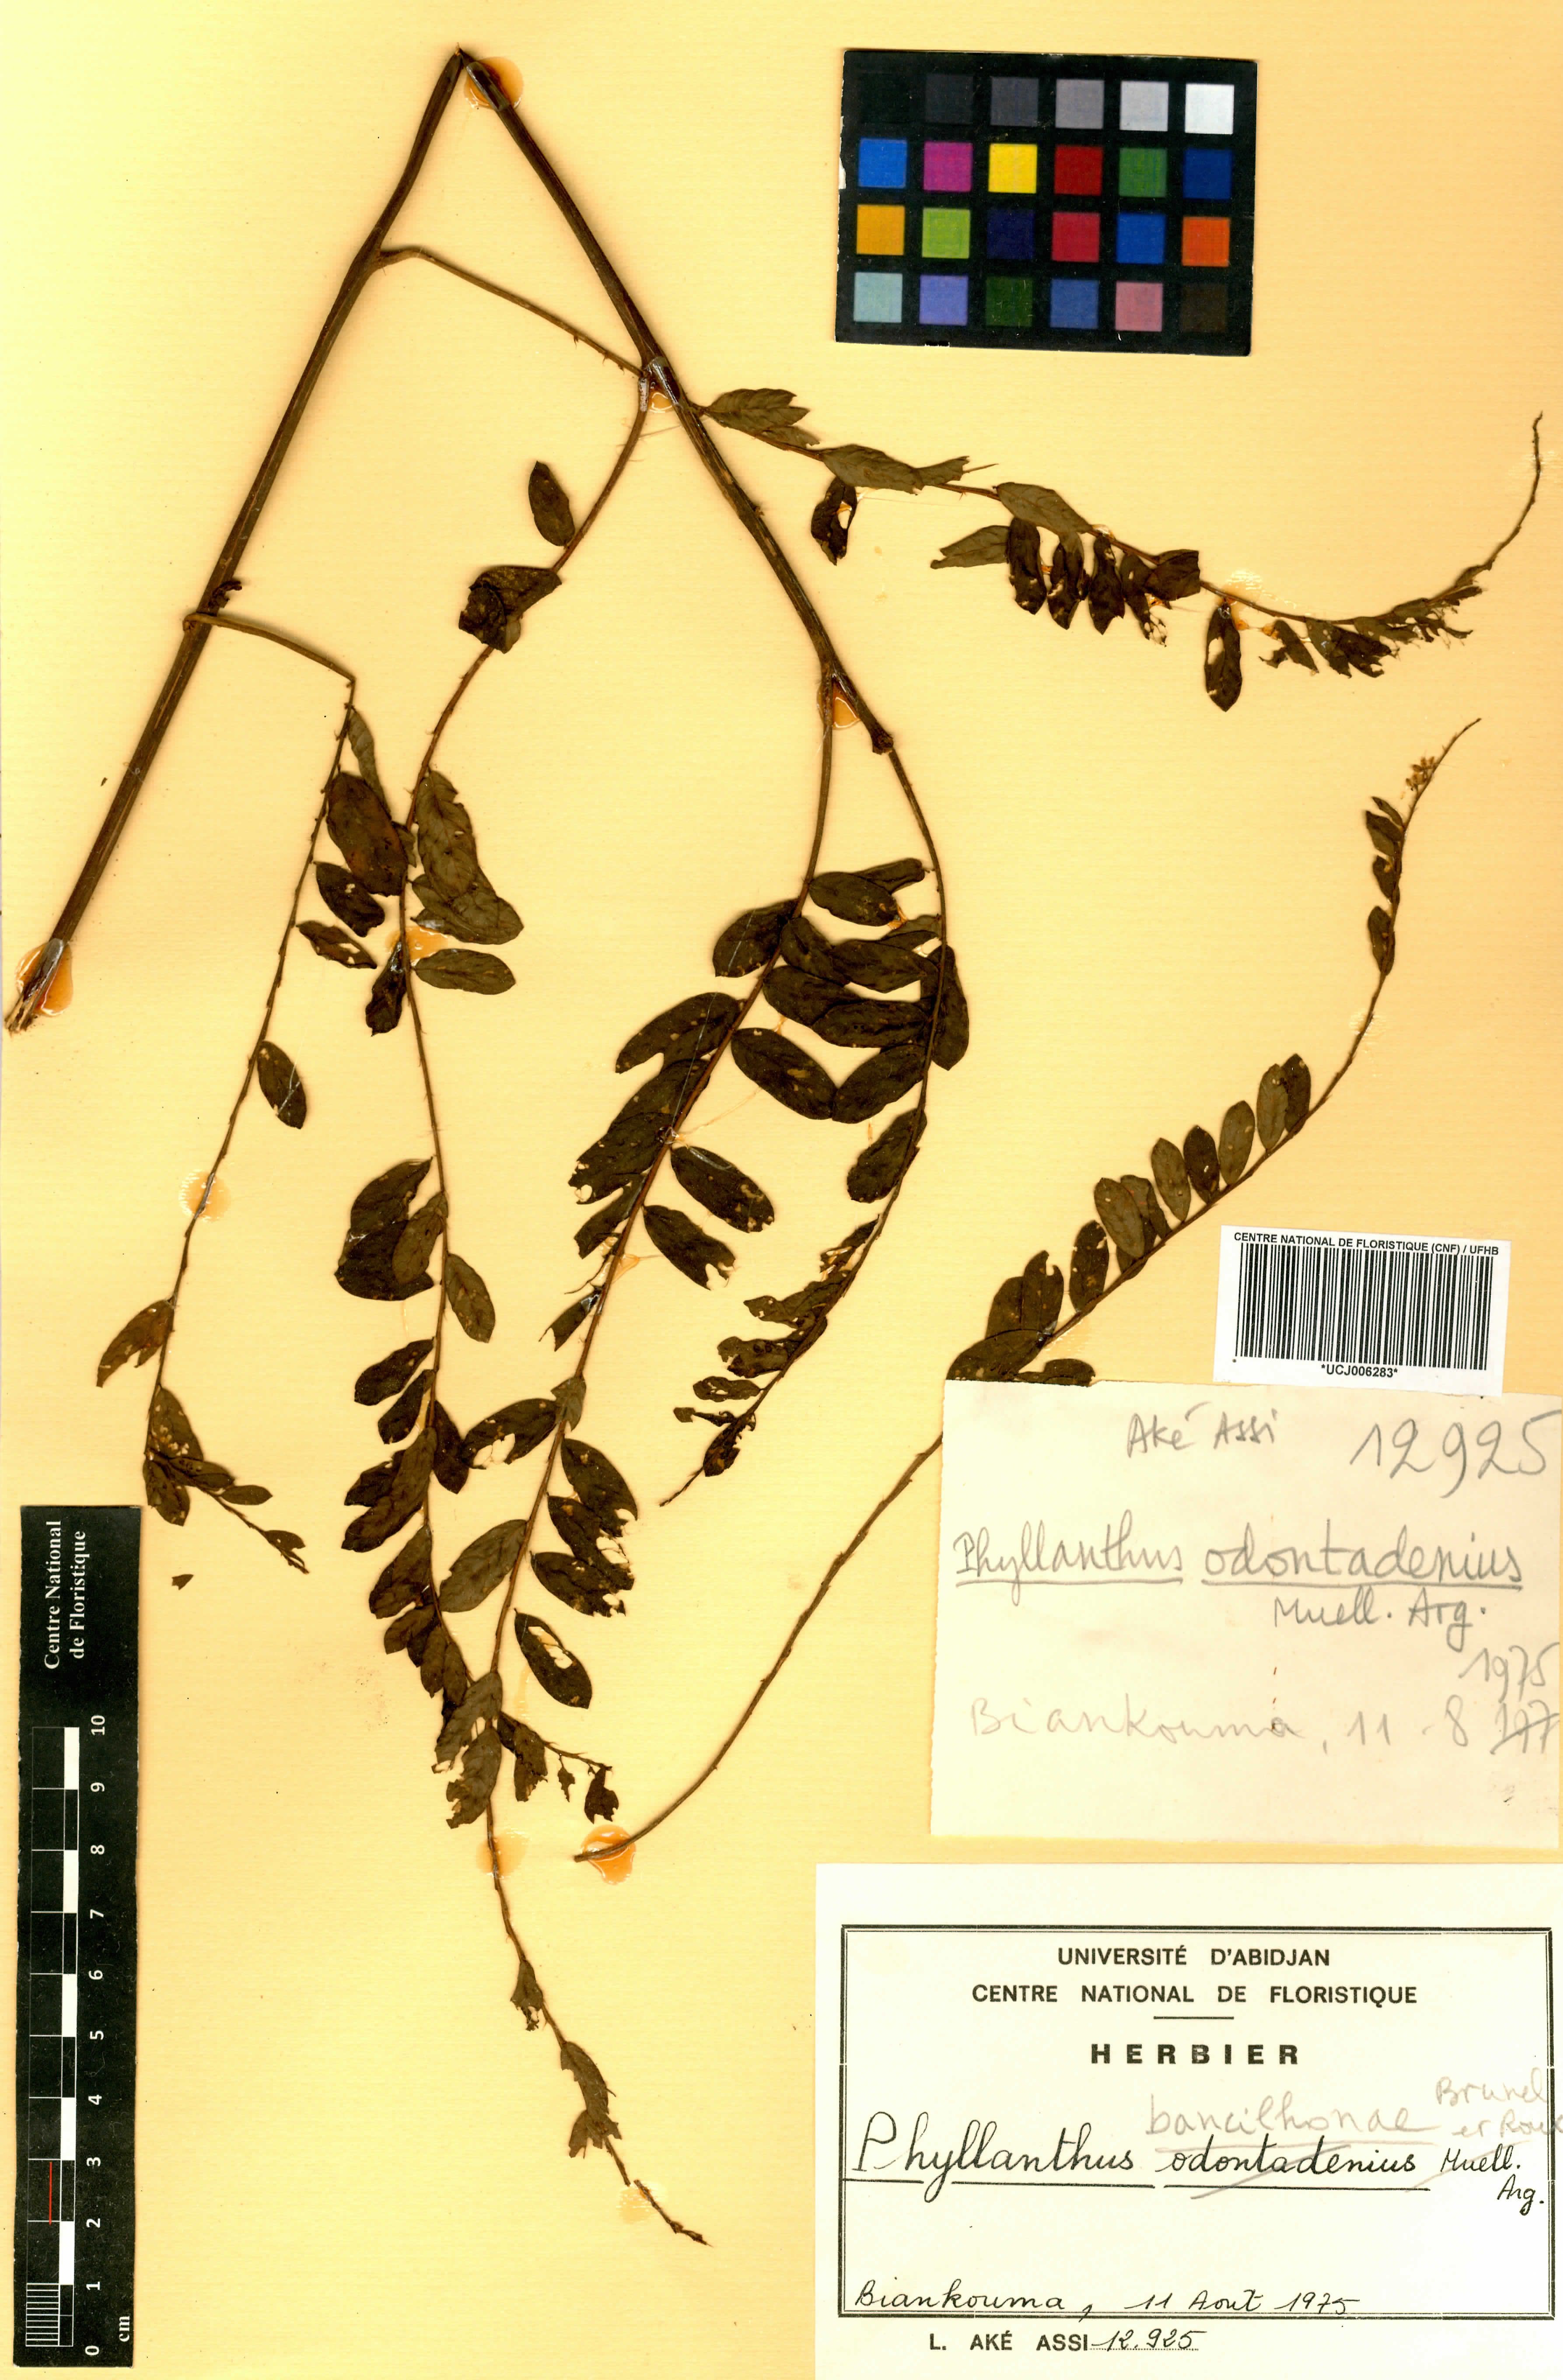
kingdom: Plantae
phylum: Tracheophyta
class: Magnoliopsida
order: Malpighiales
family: Phyllanthaceae
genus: Phyllanthus
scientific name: Phyllanthus bancilhonae
